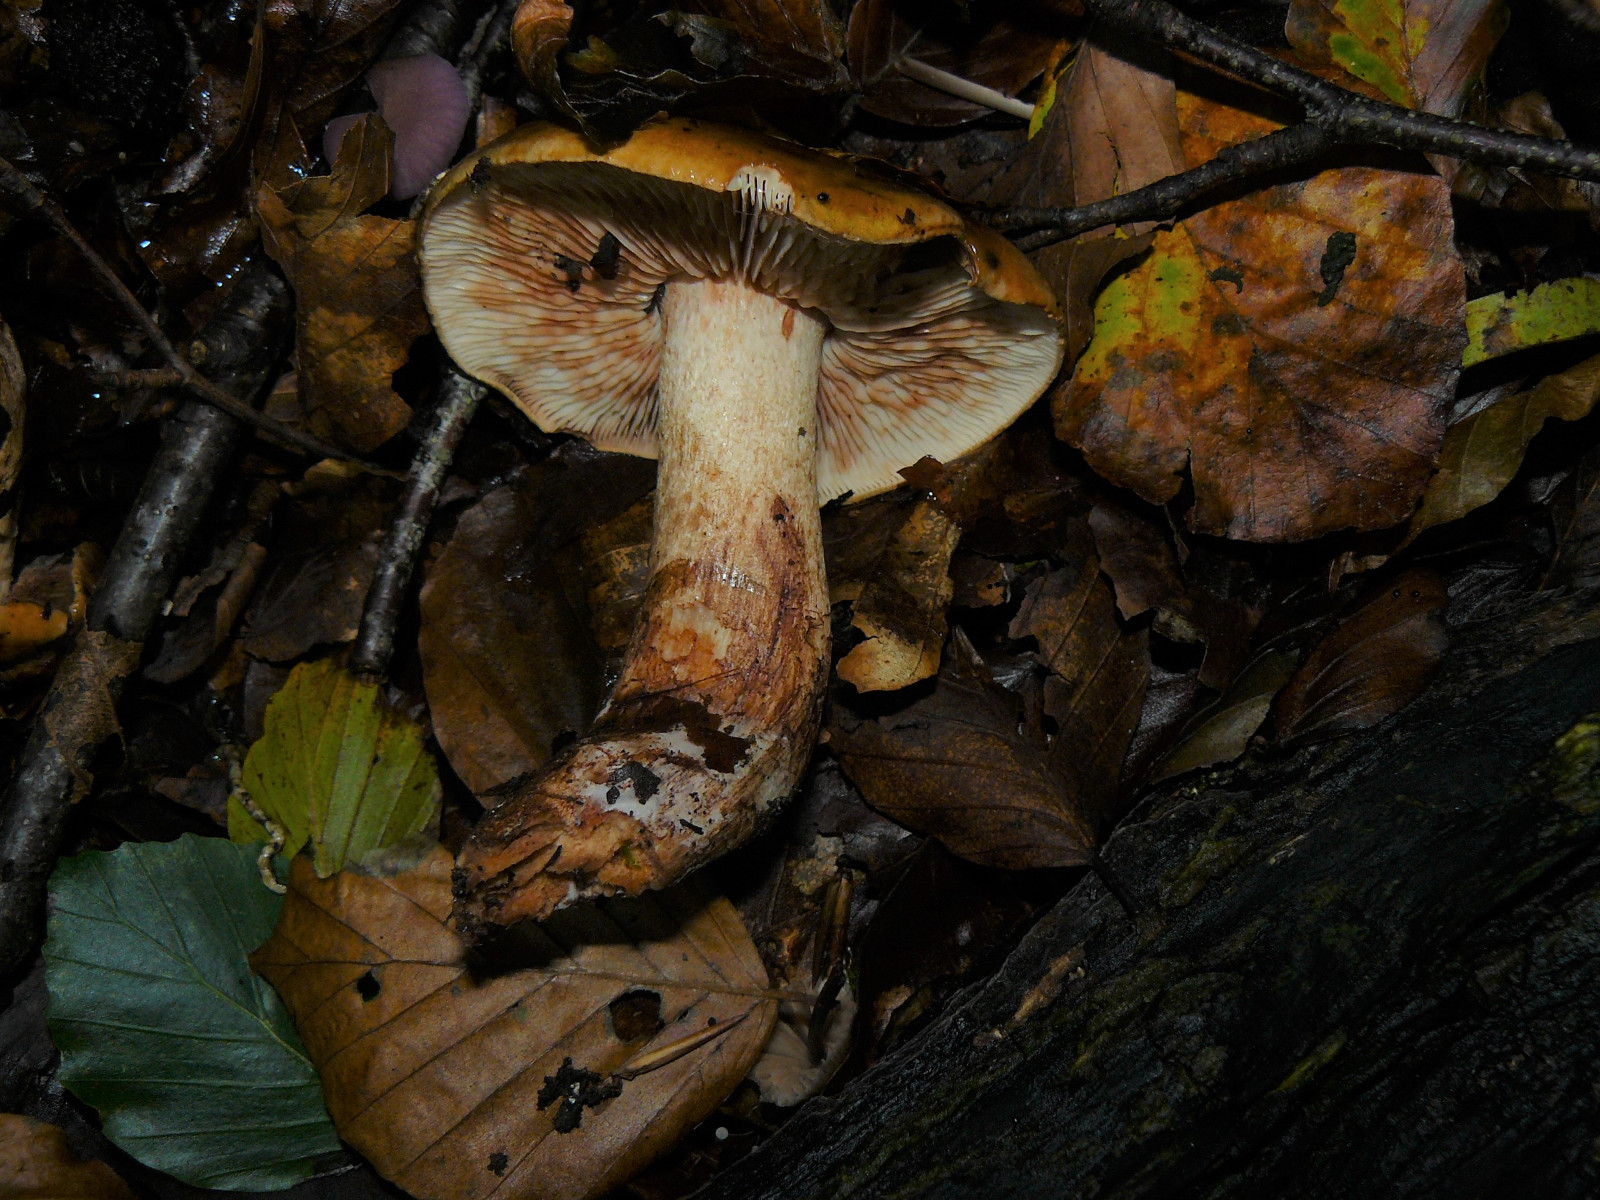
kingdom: Fungi
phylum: Basidiomycota
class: Agaricomycetes
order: Agaricales
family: Tricholomataceae
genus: Tricholoma
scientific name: Tricholoma ustale
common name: sveden ridderhat
